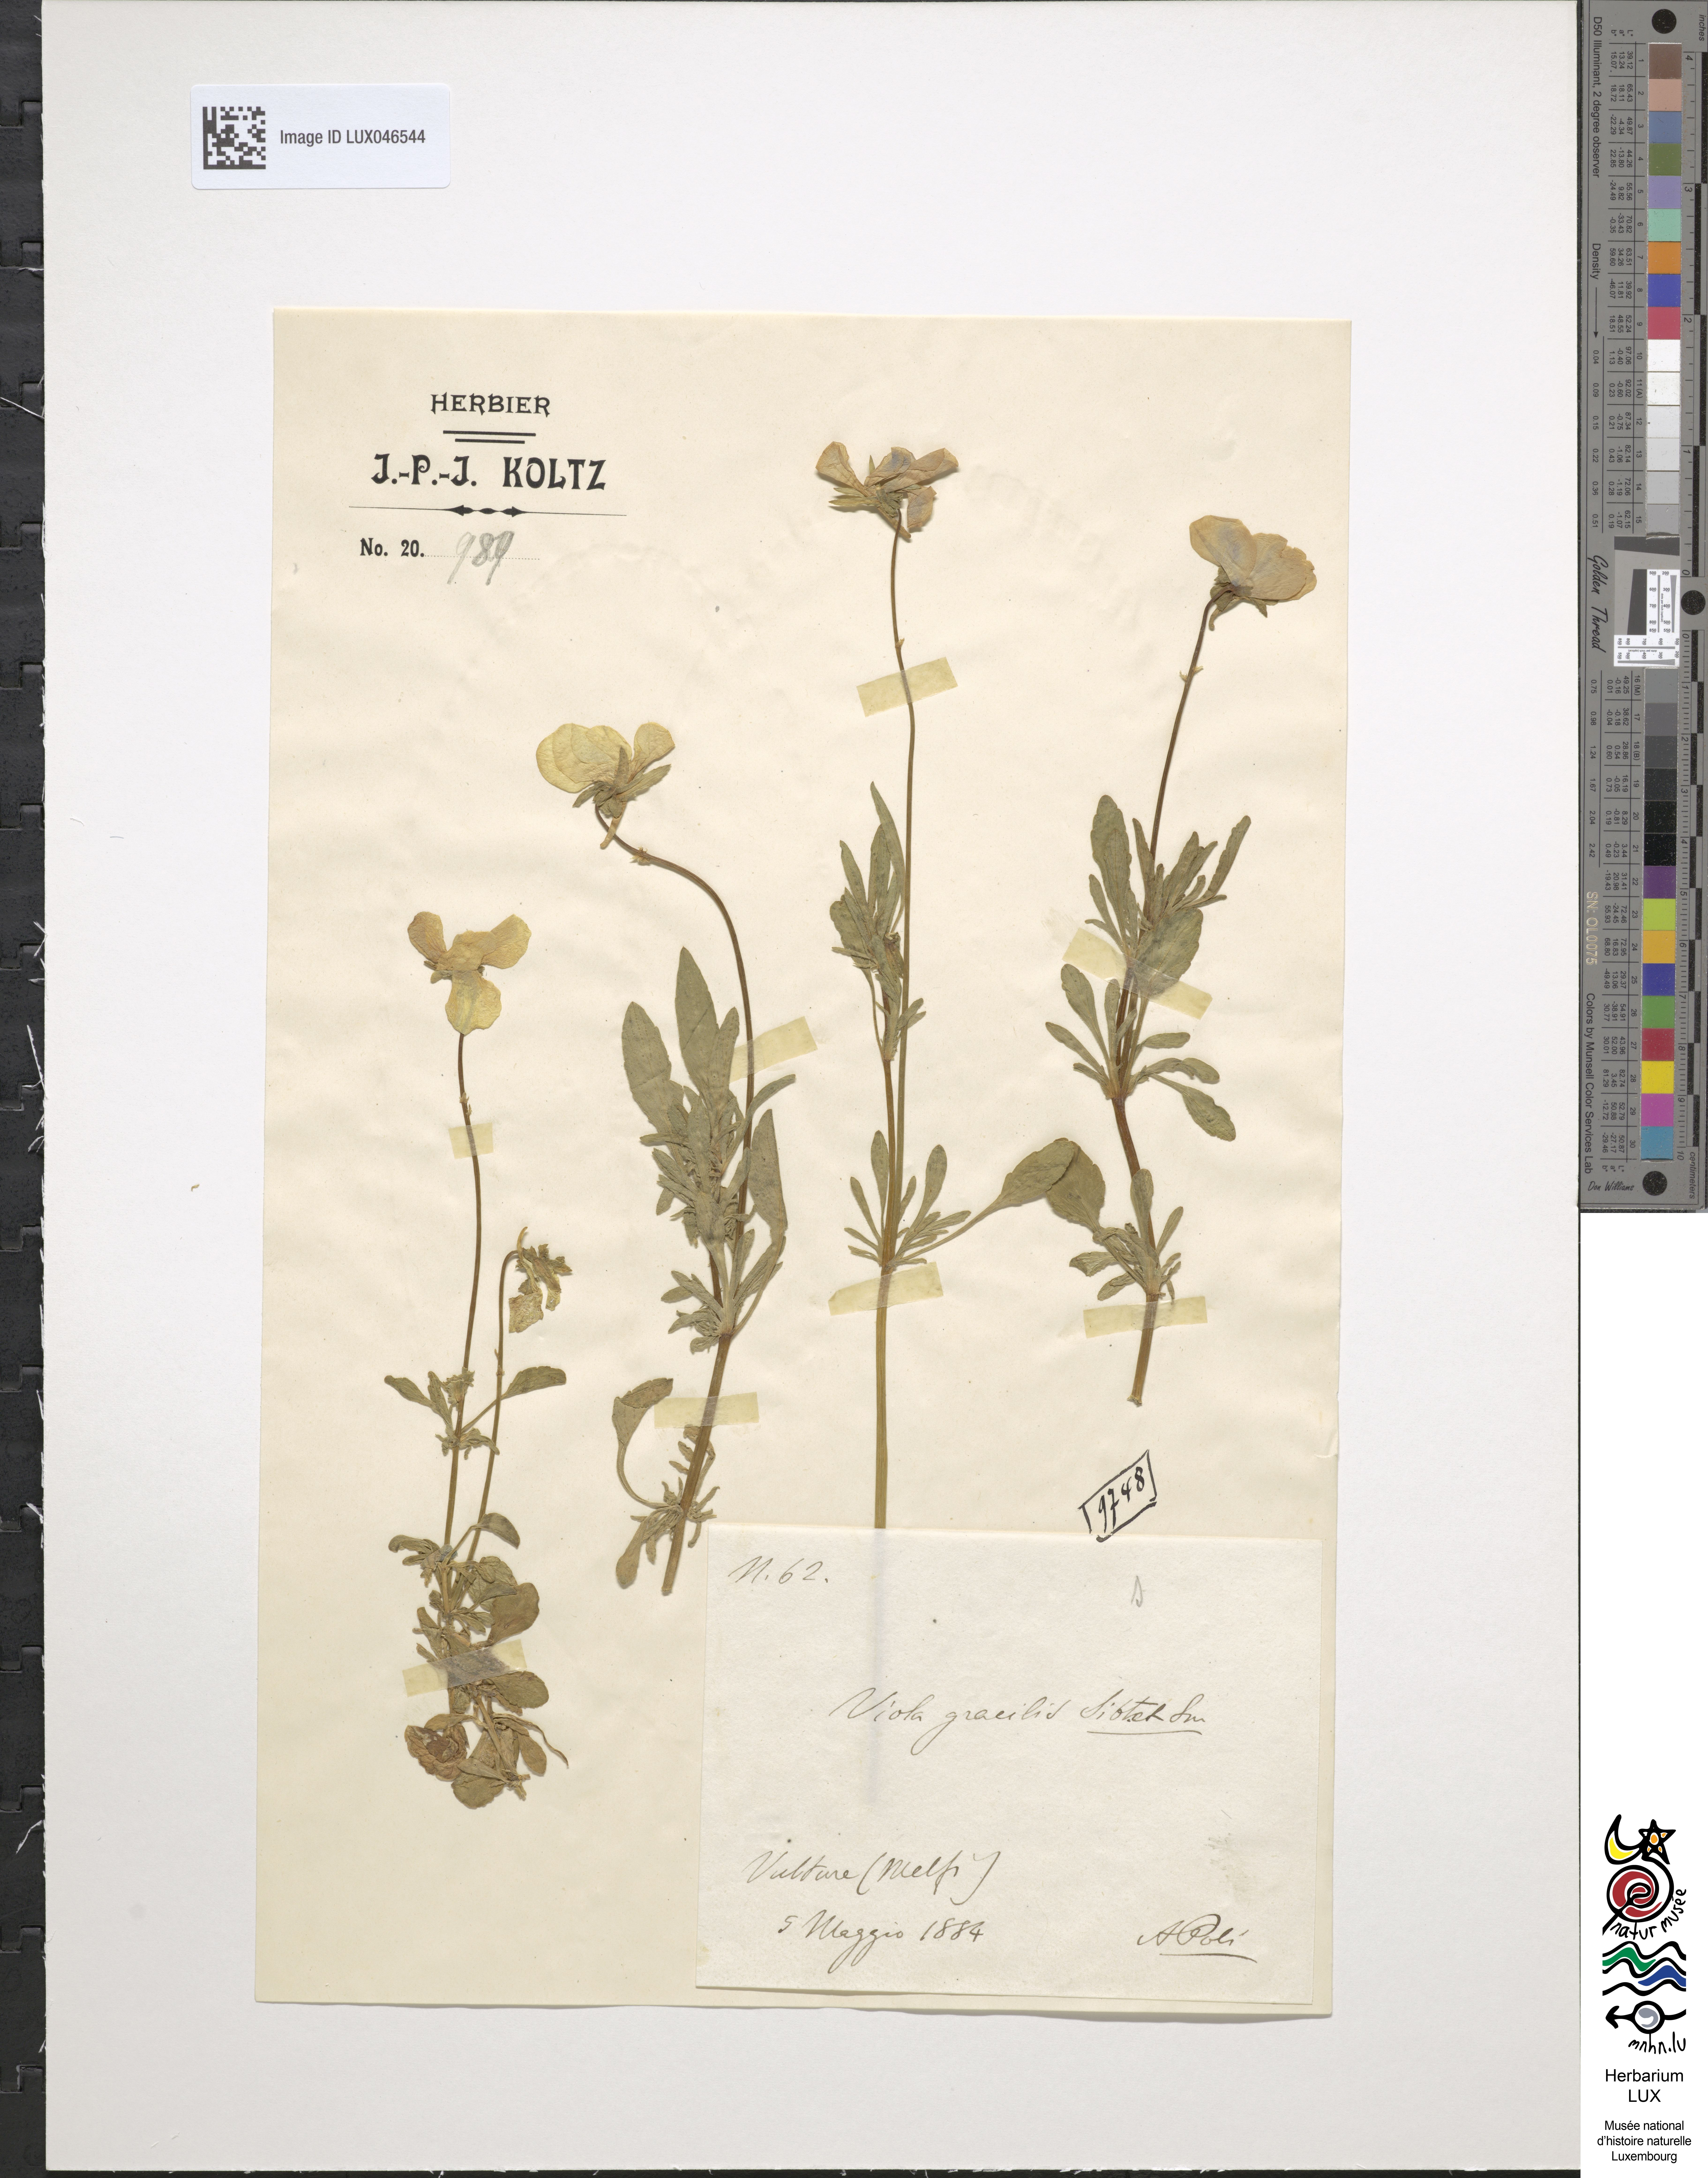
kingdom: Plantae
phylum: Tracheophyta
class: Magnoliopsida
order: Malpighiales
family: Violaceae
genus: Viola
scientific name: Viola gracilis
